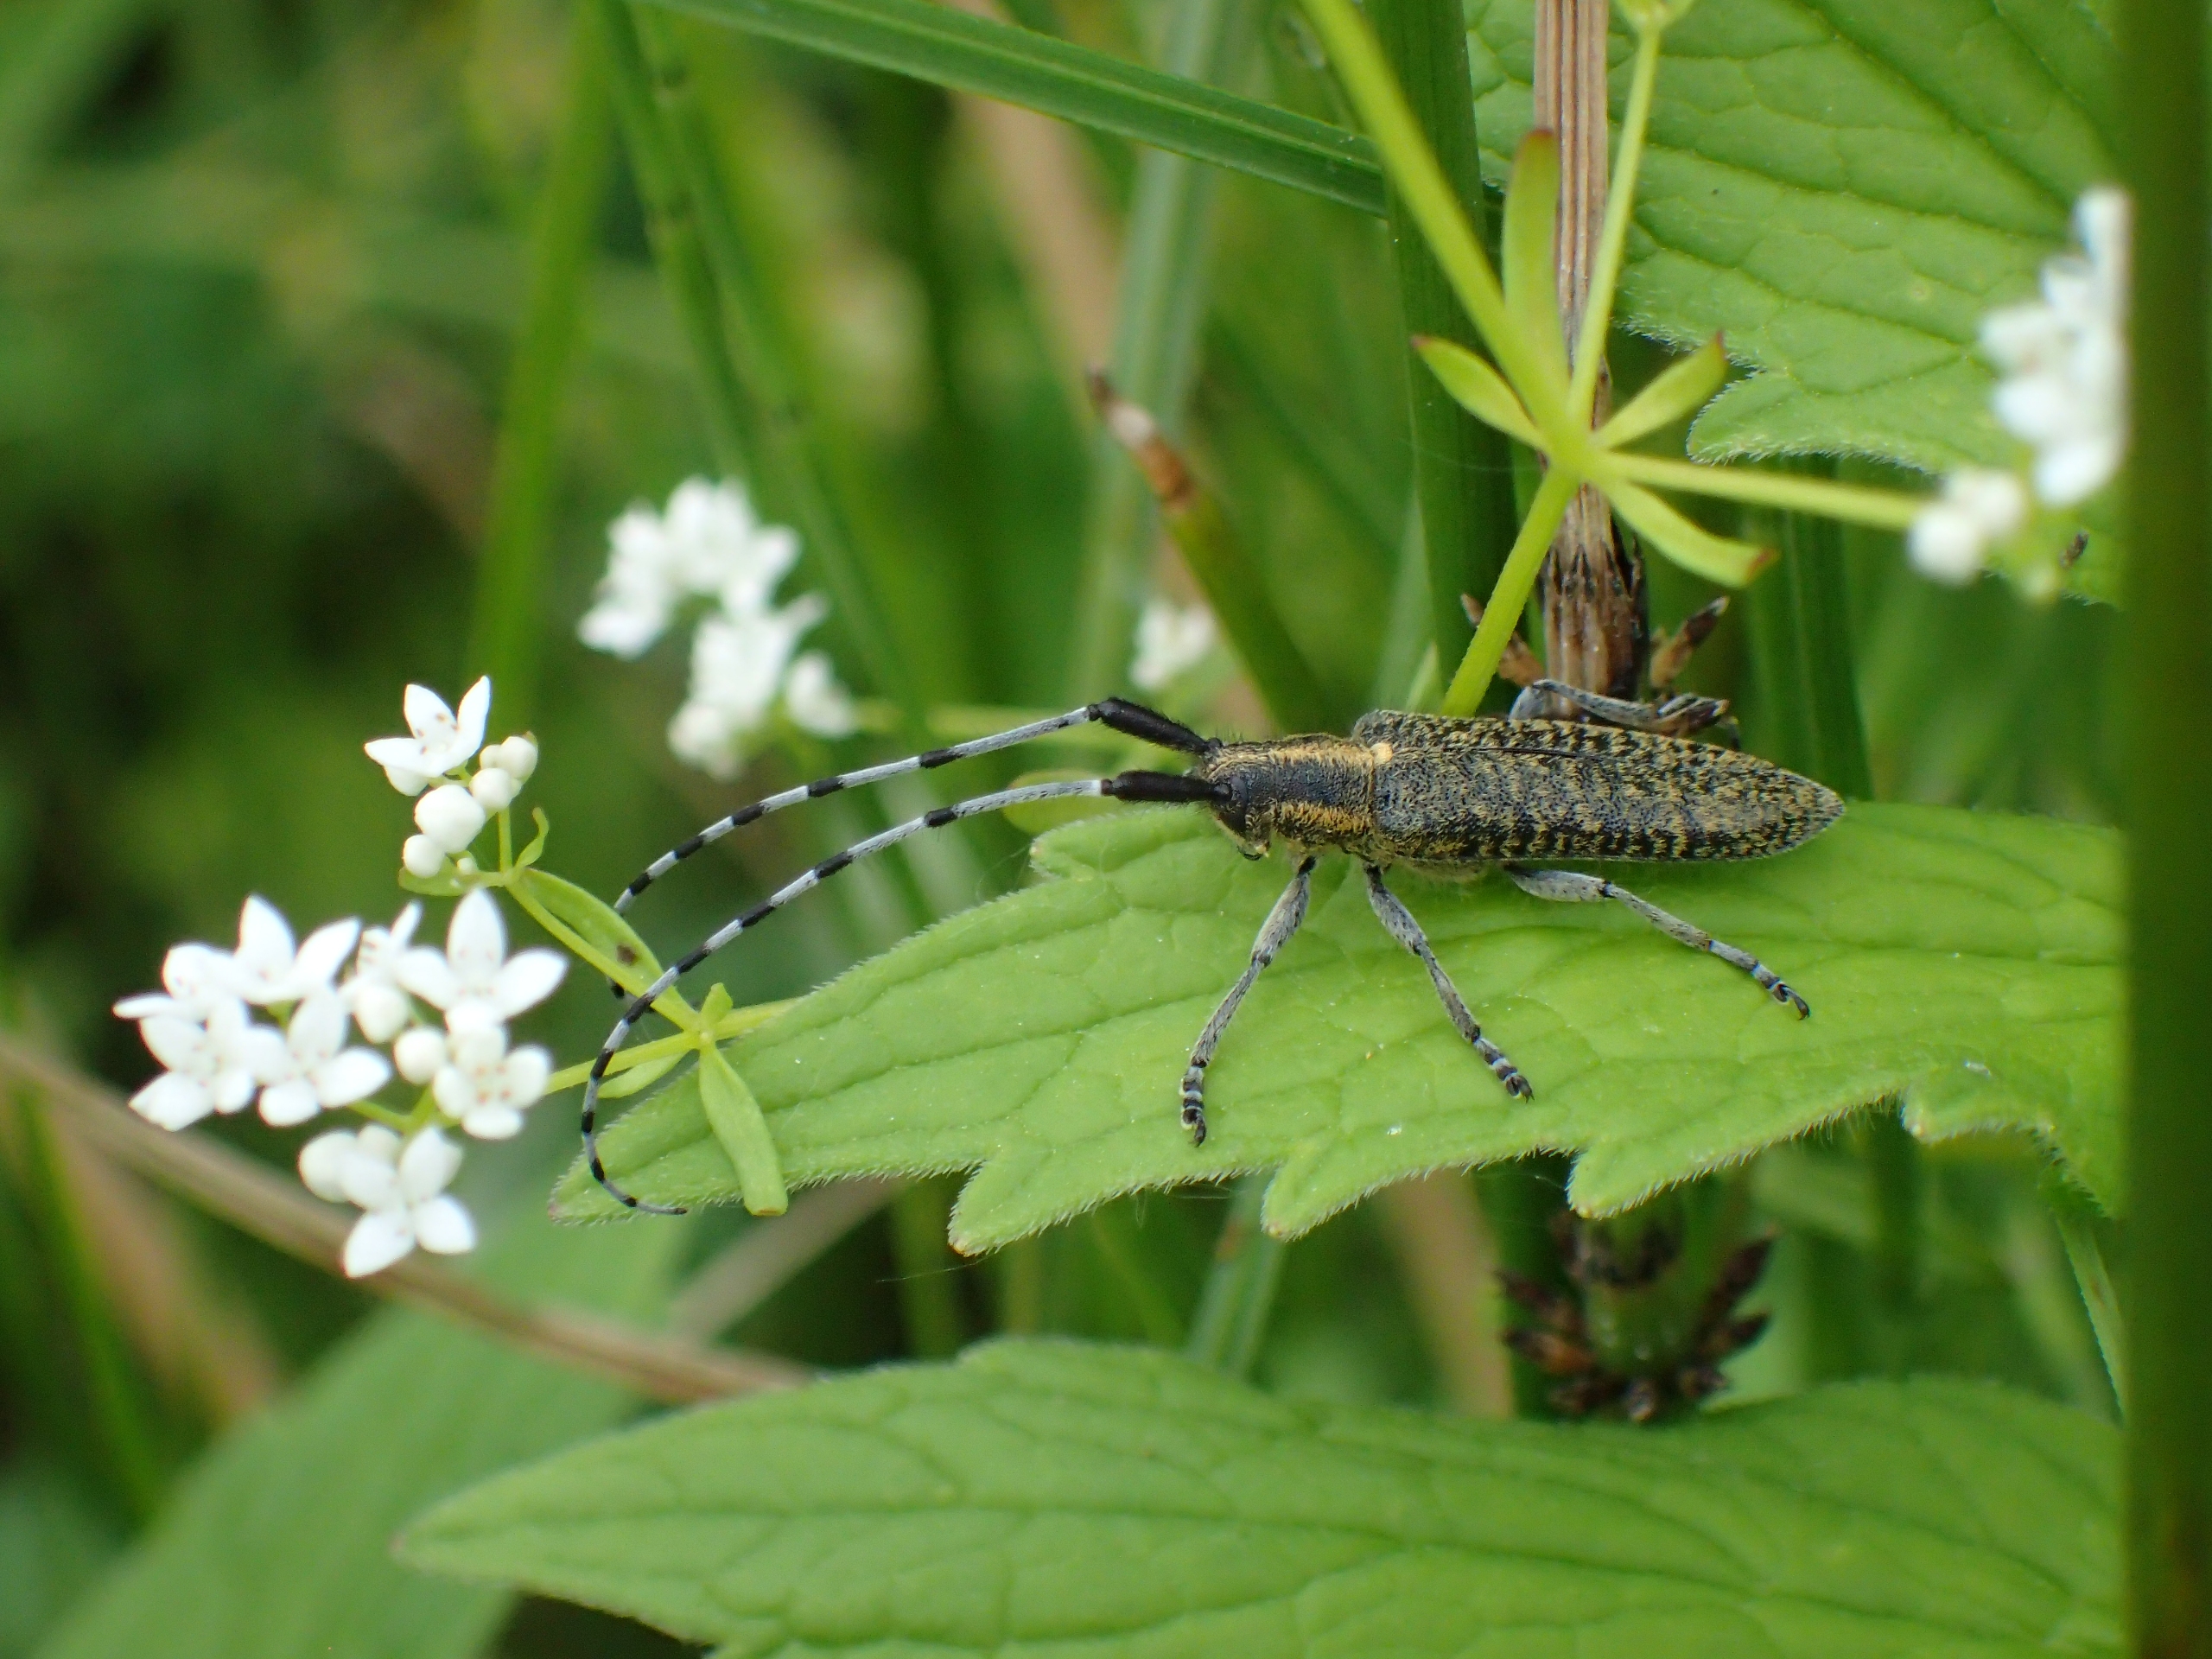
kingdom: Animalia
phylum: Arthropoda
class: Insecta
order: Coleoptera
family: Cerambycidae
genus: Agapanthia
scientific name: Agapanthia villosoviridescens
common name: Tidselbuk
